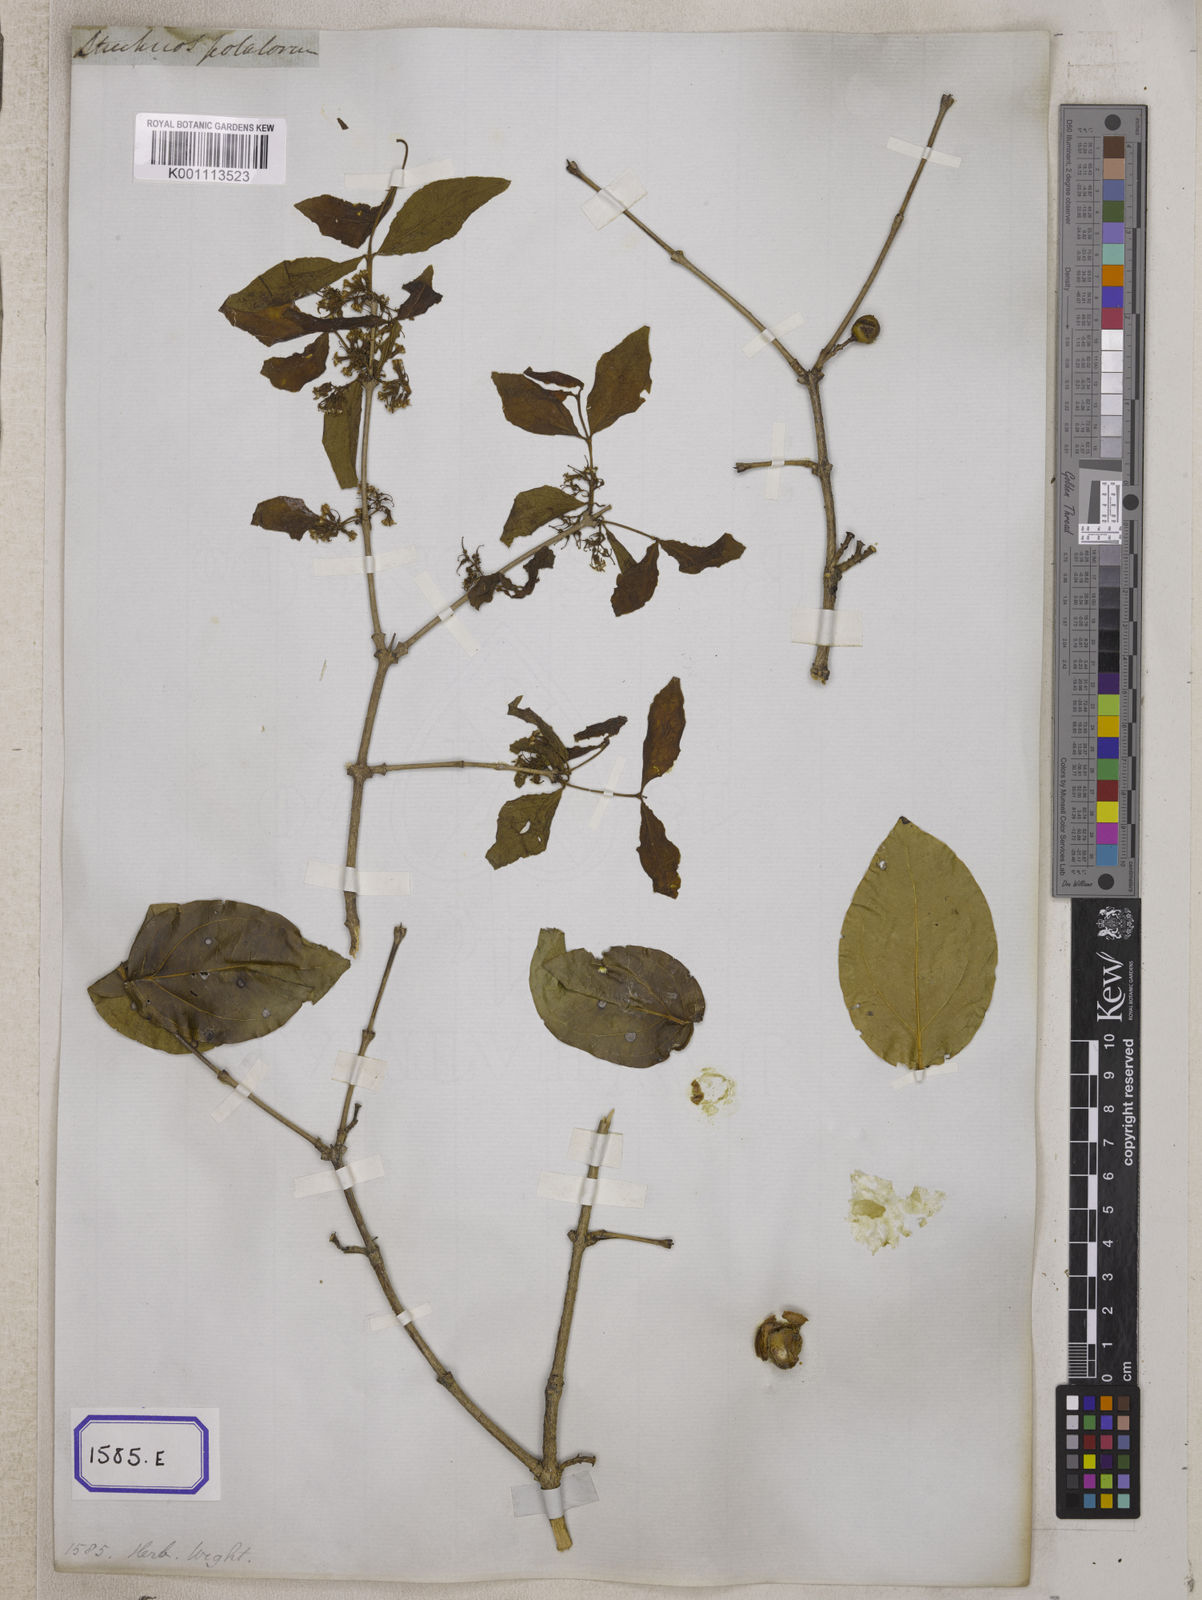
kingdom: Plantae
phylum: Tracheophyta
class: Magnoliopsida
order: Gentianales
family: Loganiaceae
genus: Strychnos
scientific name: Strychnos potatorum
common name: Clearing-nut-tree
